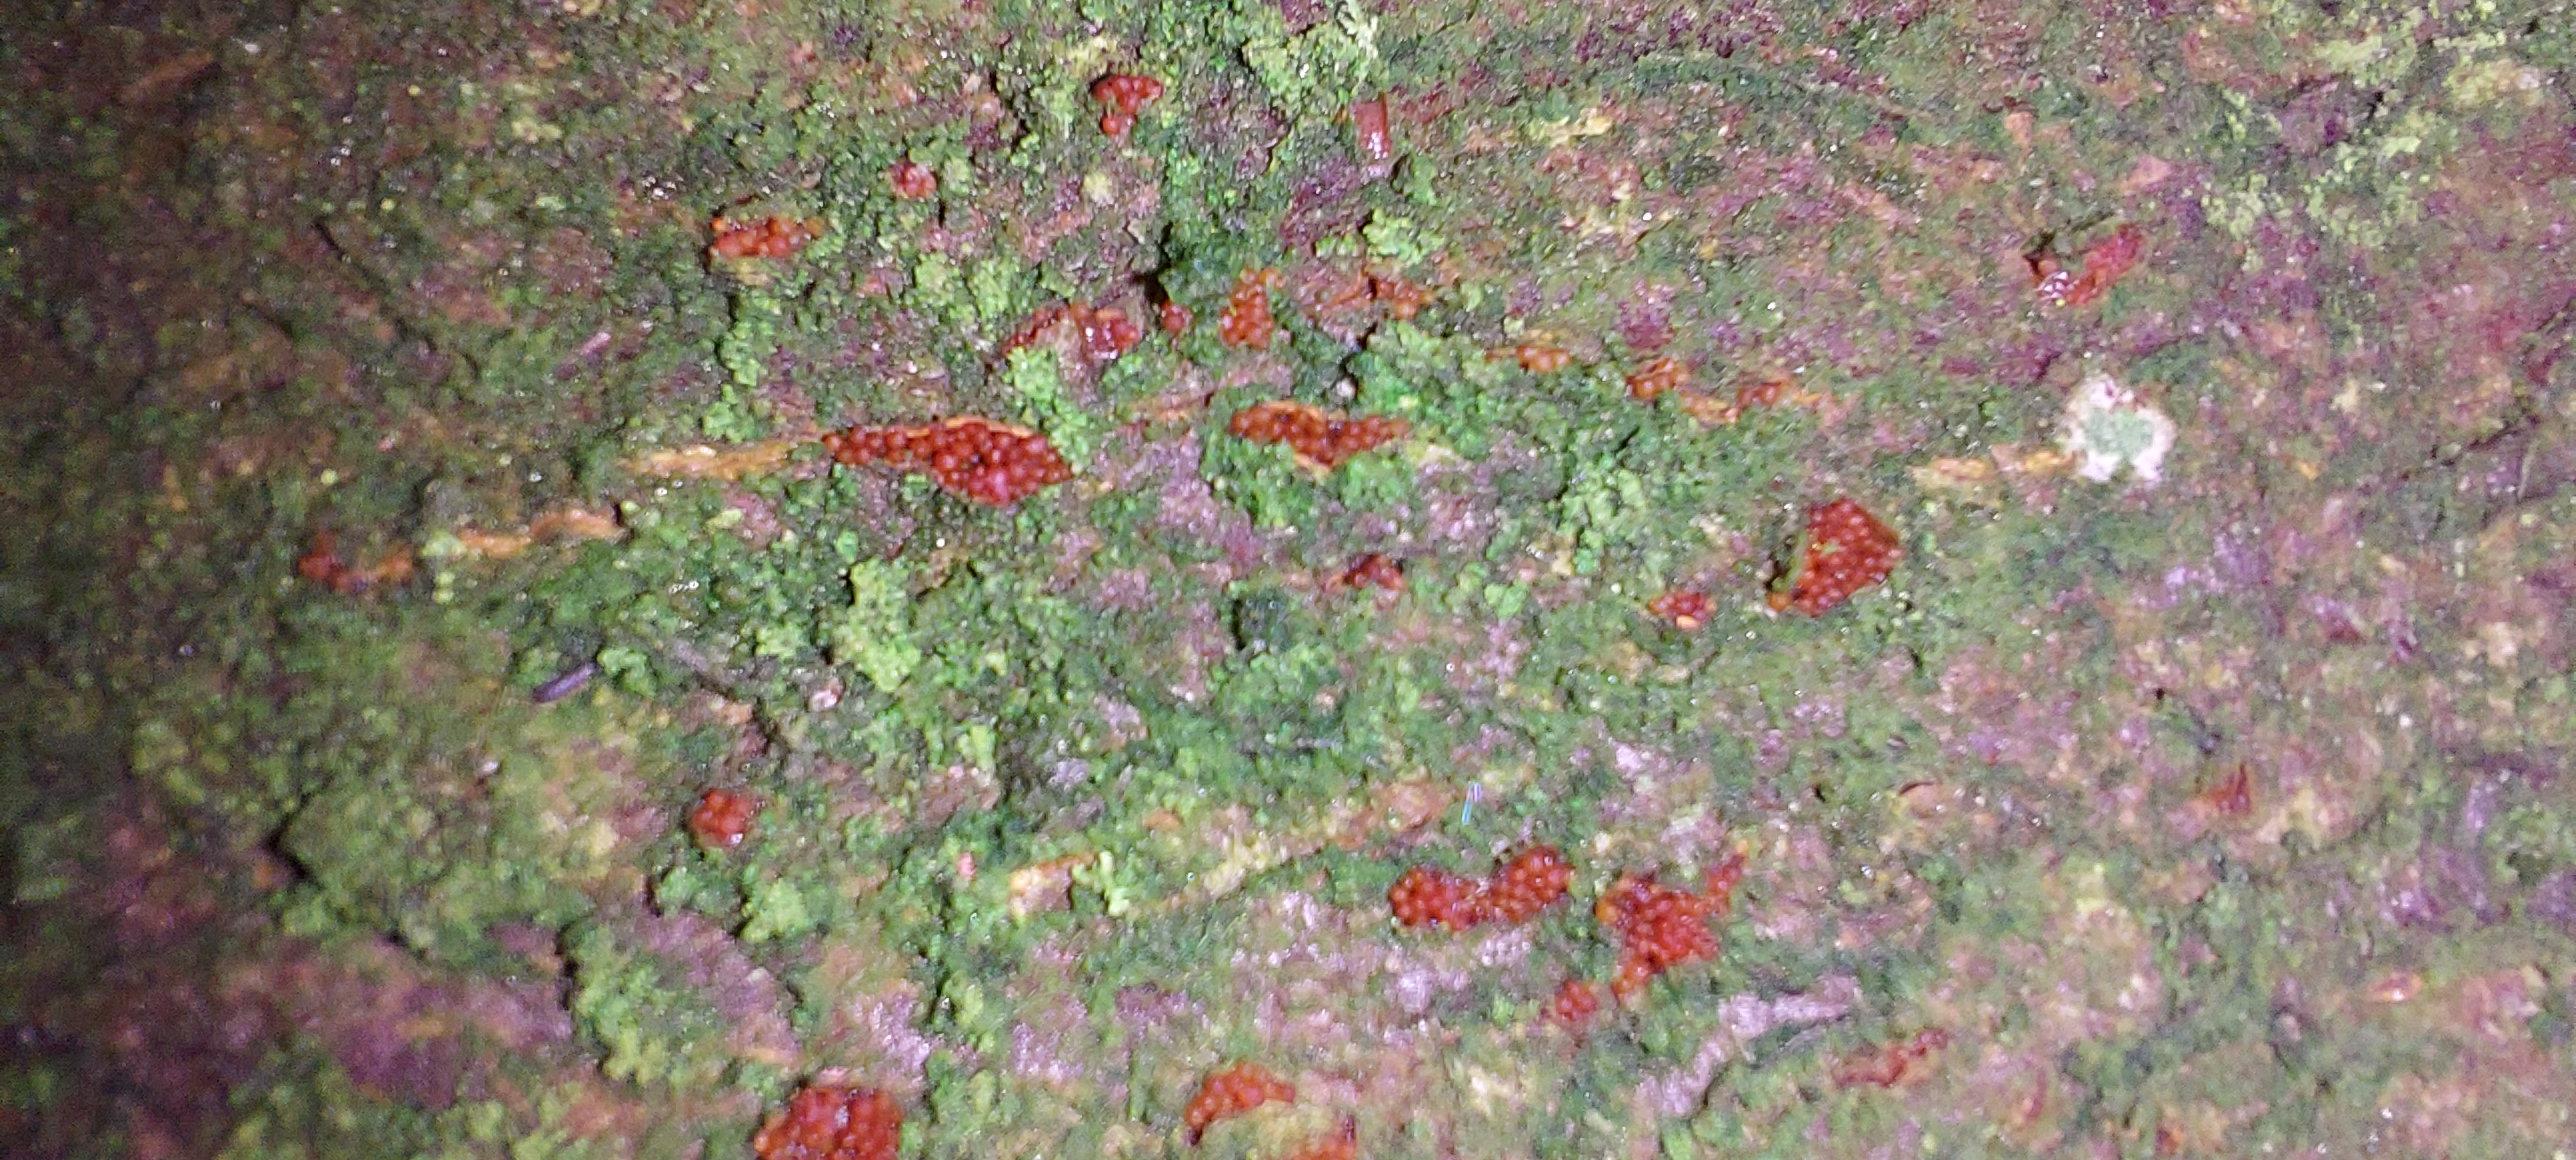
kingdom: Fungi
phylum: Ascomycota
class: Sordariomycetes
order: Hypocreales
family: Nectriaceae
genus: Neonectria
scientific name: Neonectria coccinea
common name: bøgebark-cinnobersvamp
